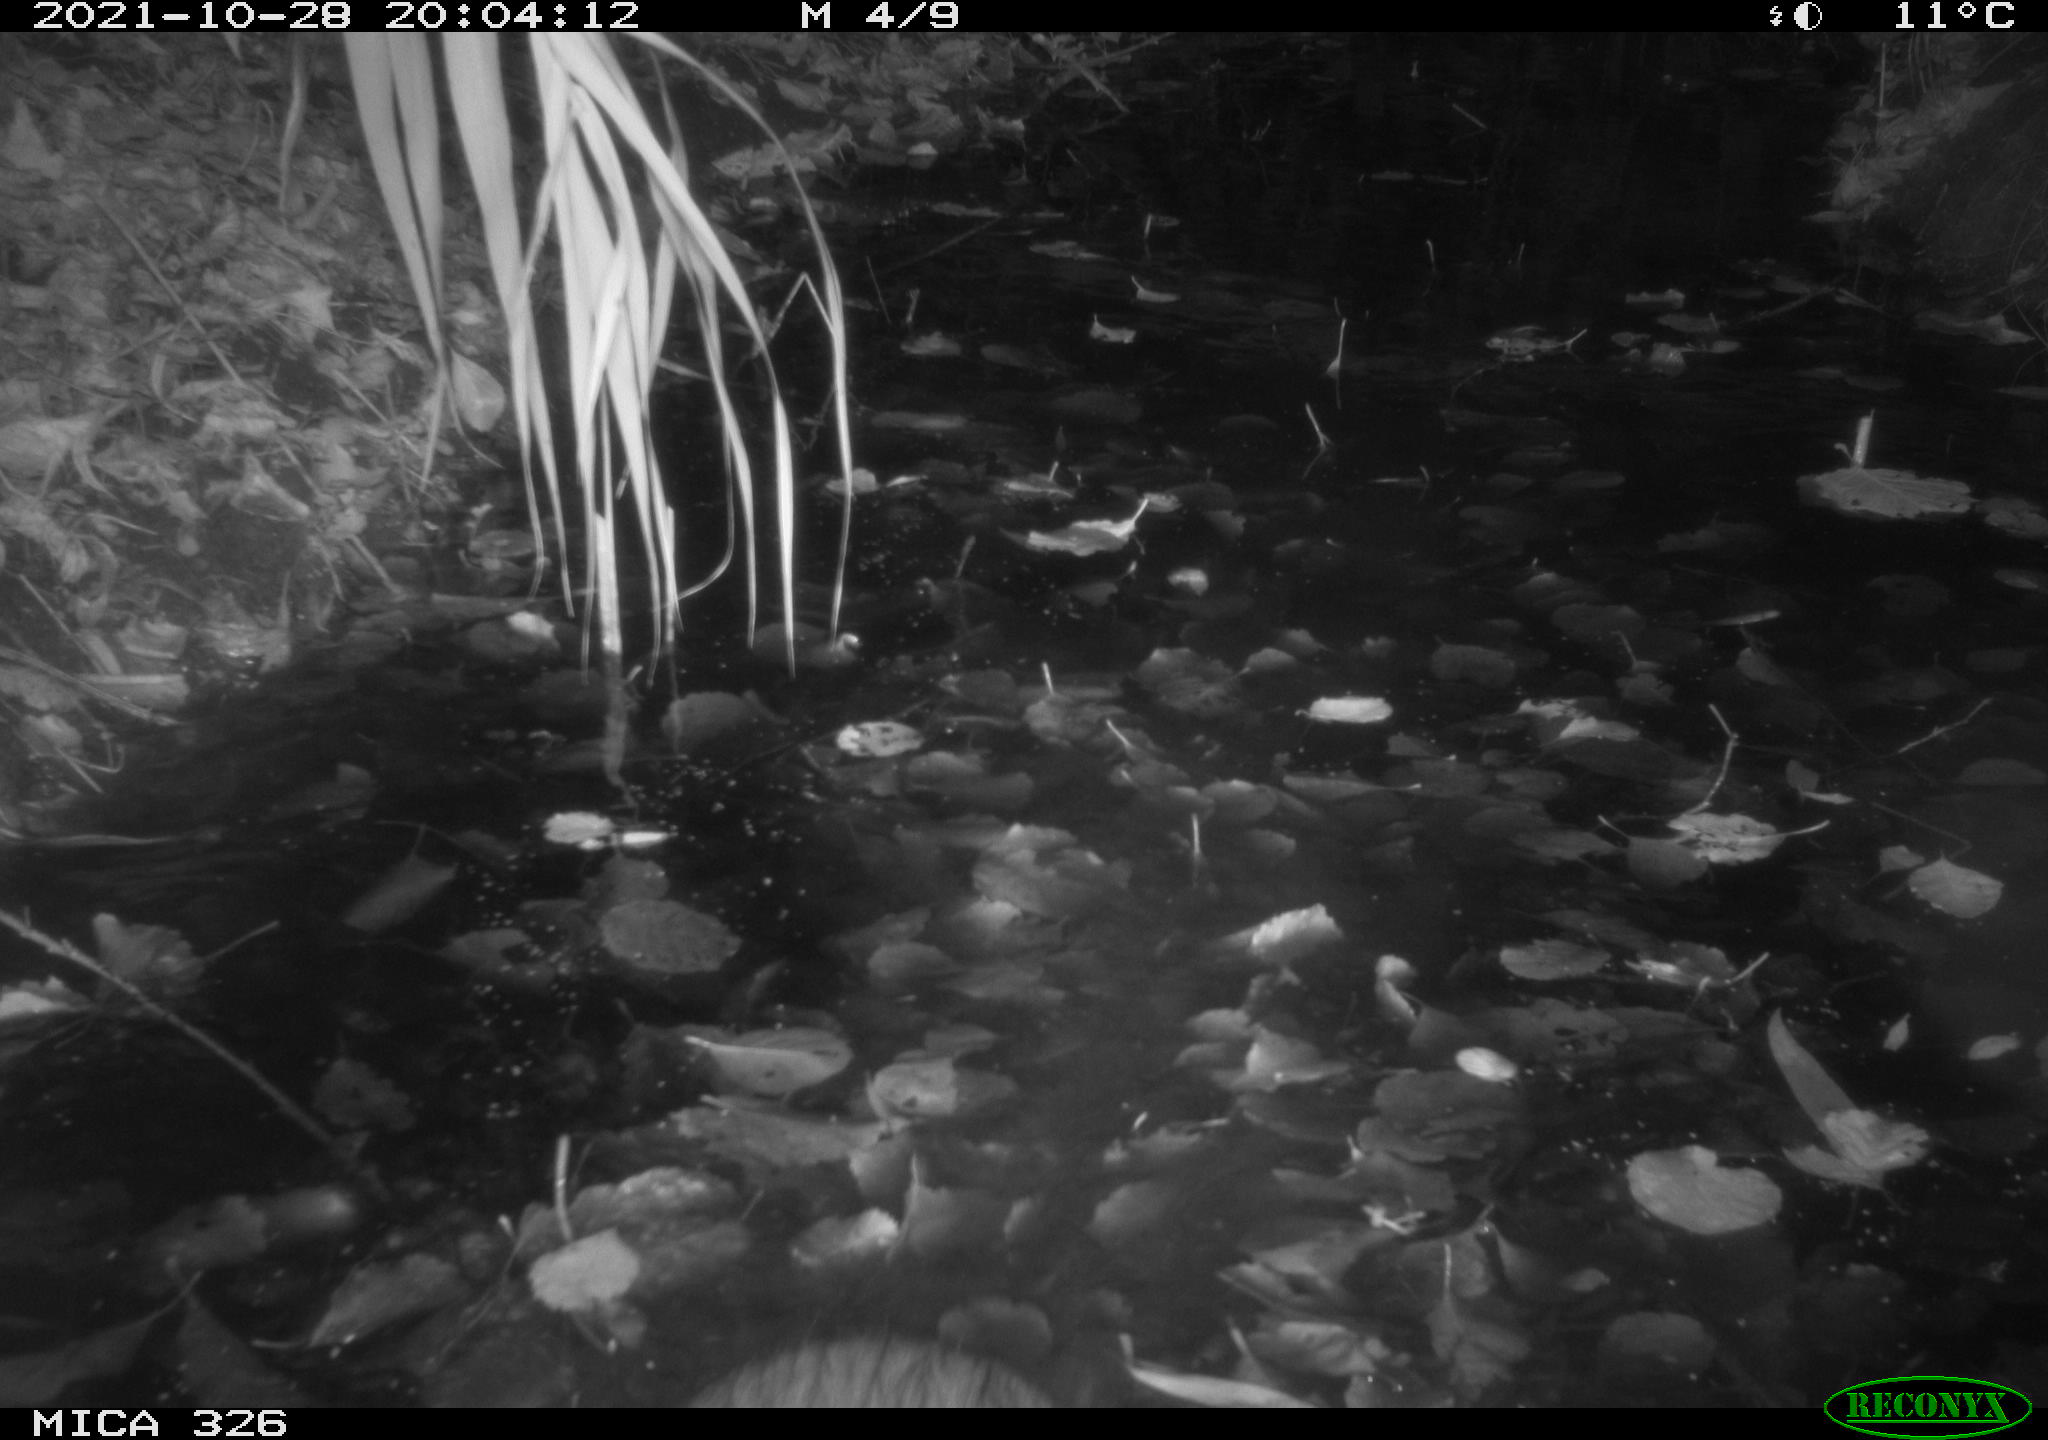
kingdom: Animalia
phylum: Chordata
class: Mammalia
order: Rodentia
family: Myocastoridae
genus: Myocastor
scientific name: Myocastor coypus
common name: Coypu
